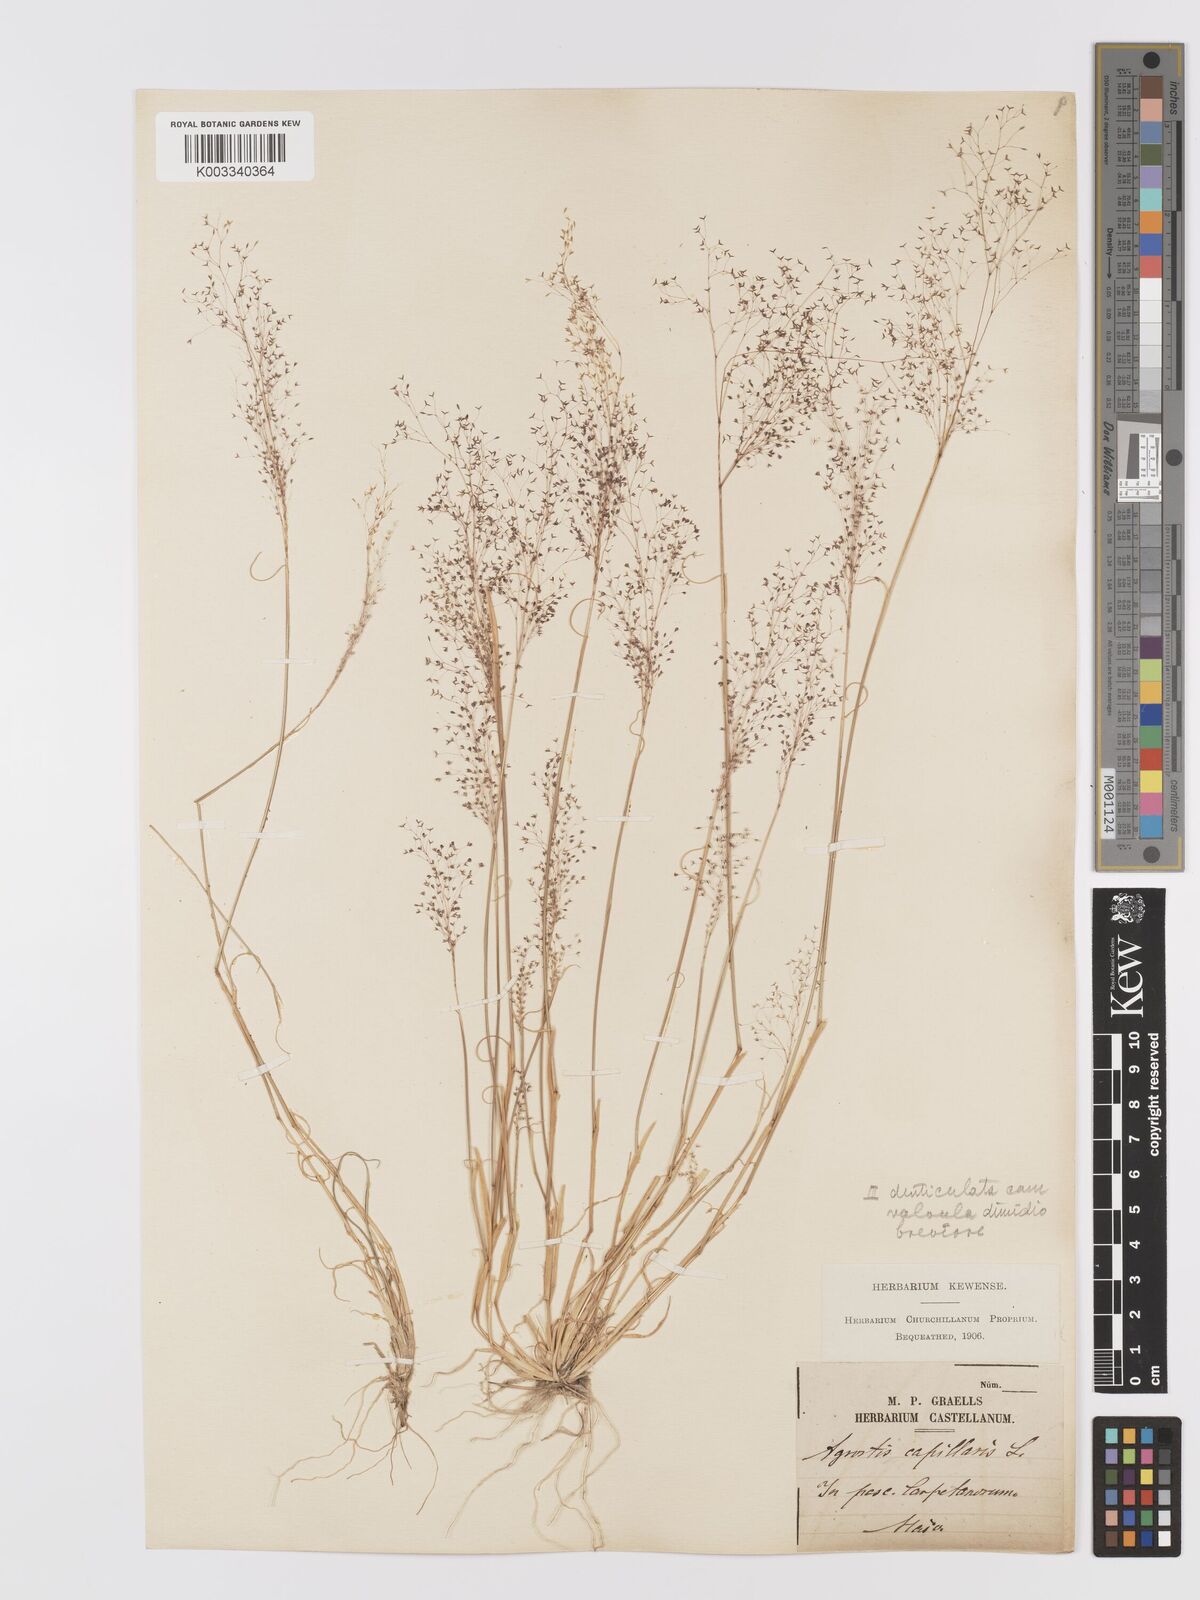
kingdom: Plantae
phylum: Tracheophyta
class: Liliopsida
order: Poales
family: Poaceae
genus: Agrostis
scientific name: Agrostis castellana
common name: Highland bent
